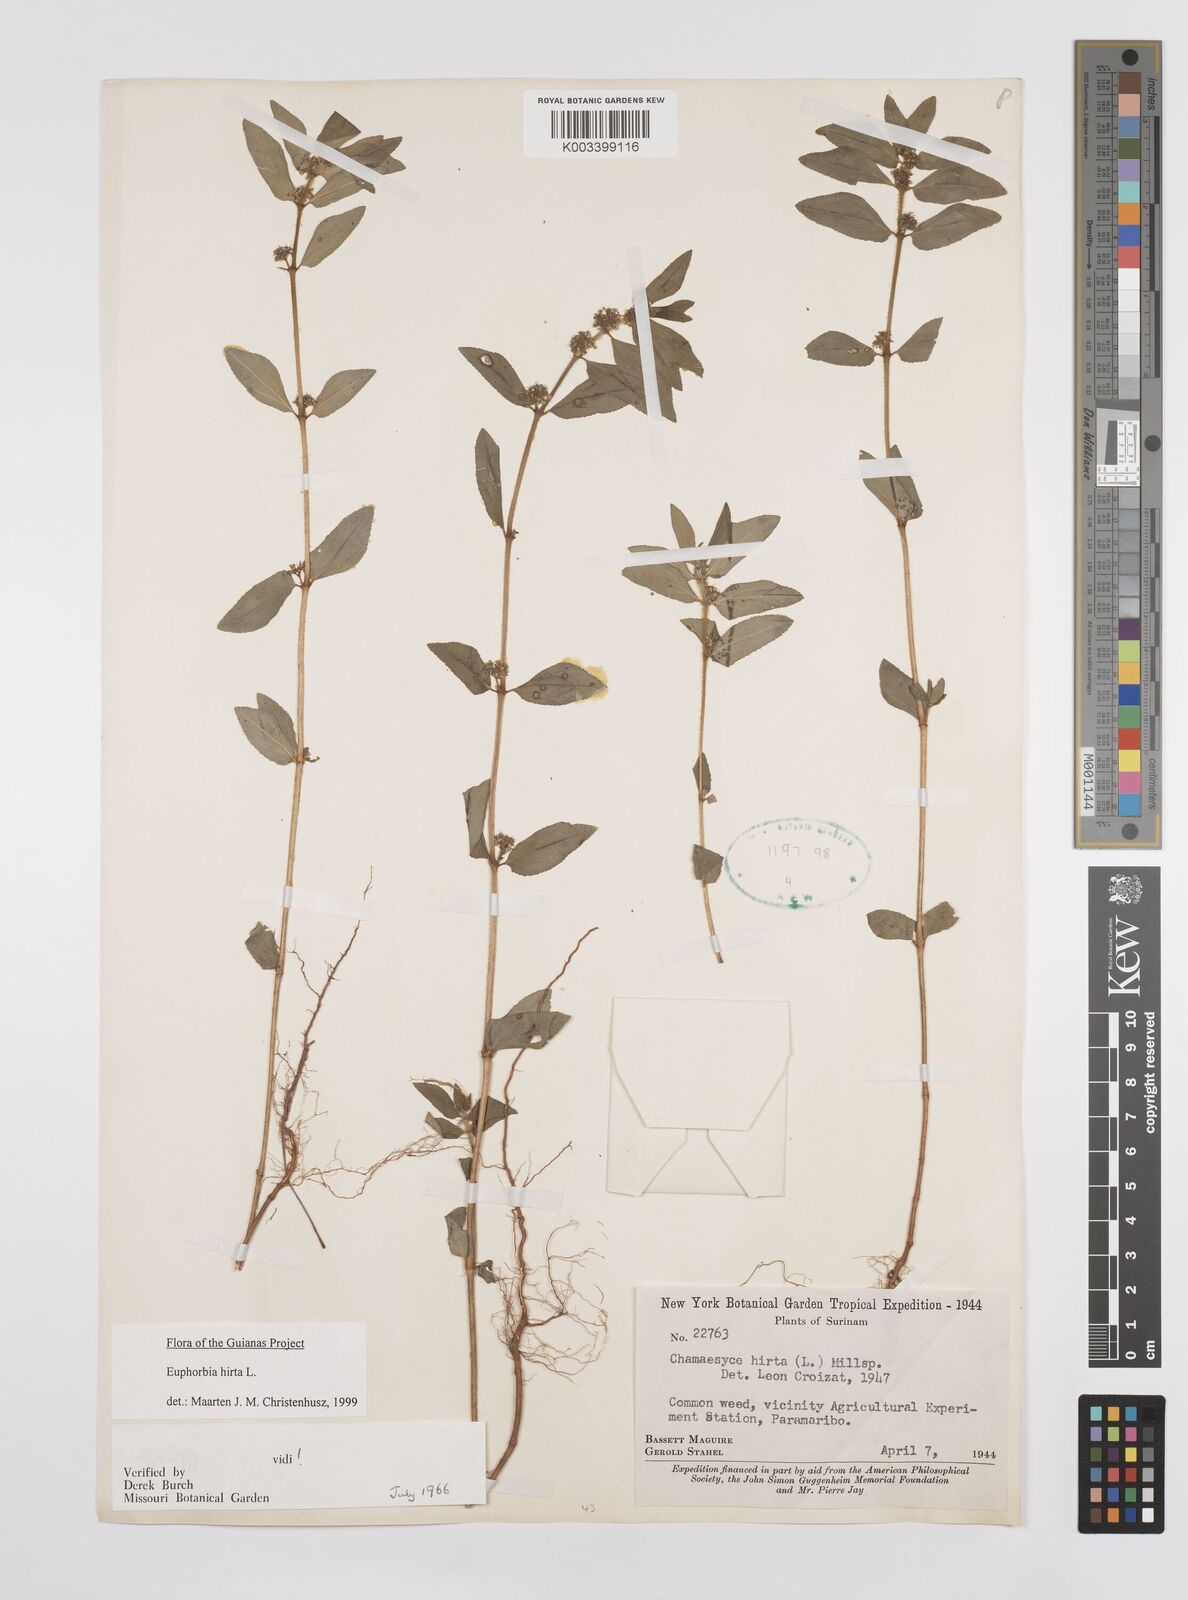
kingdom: Plantae
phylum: Tracheophyta
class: Magnoliopsida
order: Malpighiales
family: Euphorbiaceae
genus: Euphorbia
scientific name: Euphorbia hirta
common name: Pillpod sandmat
